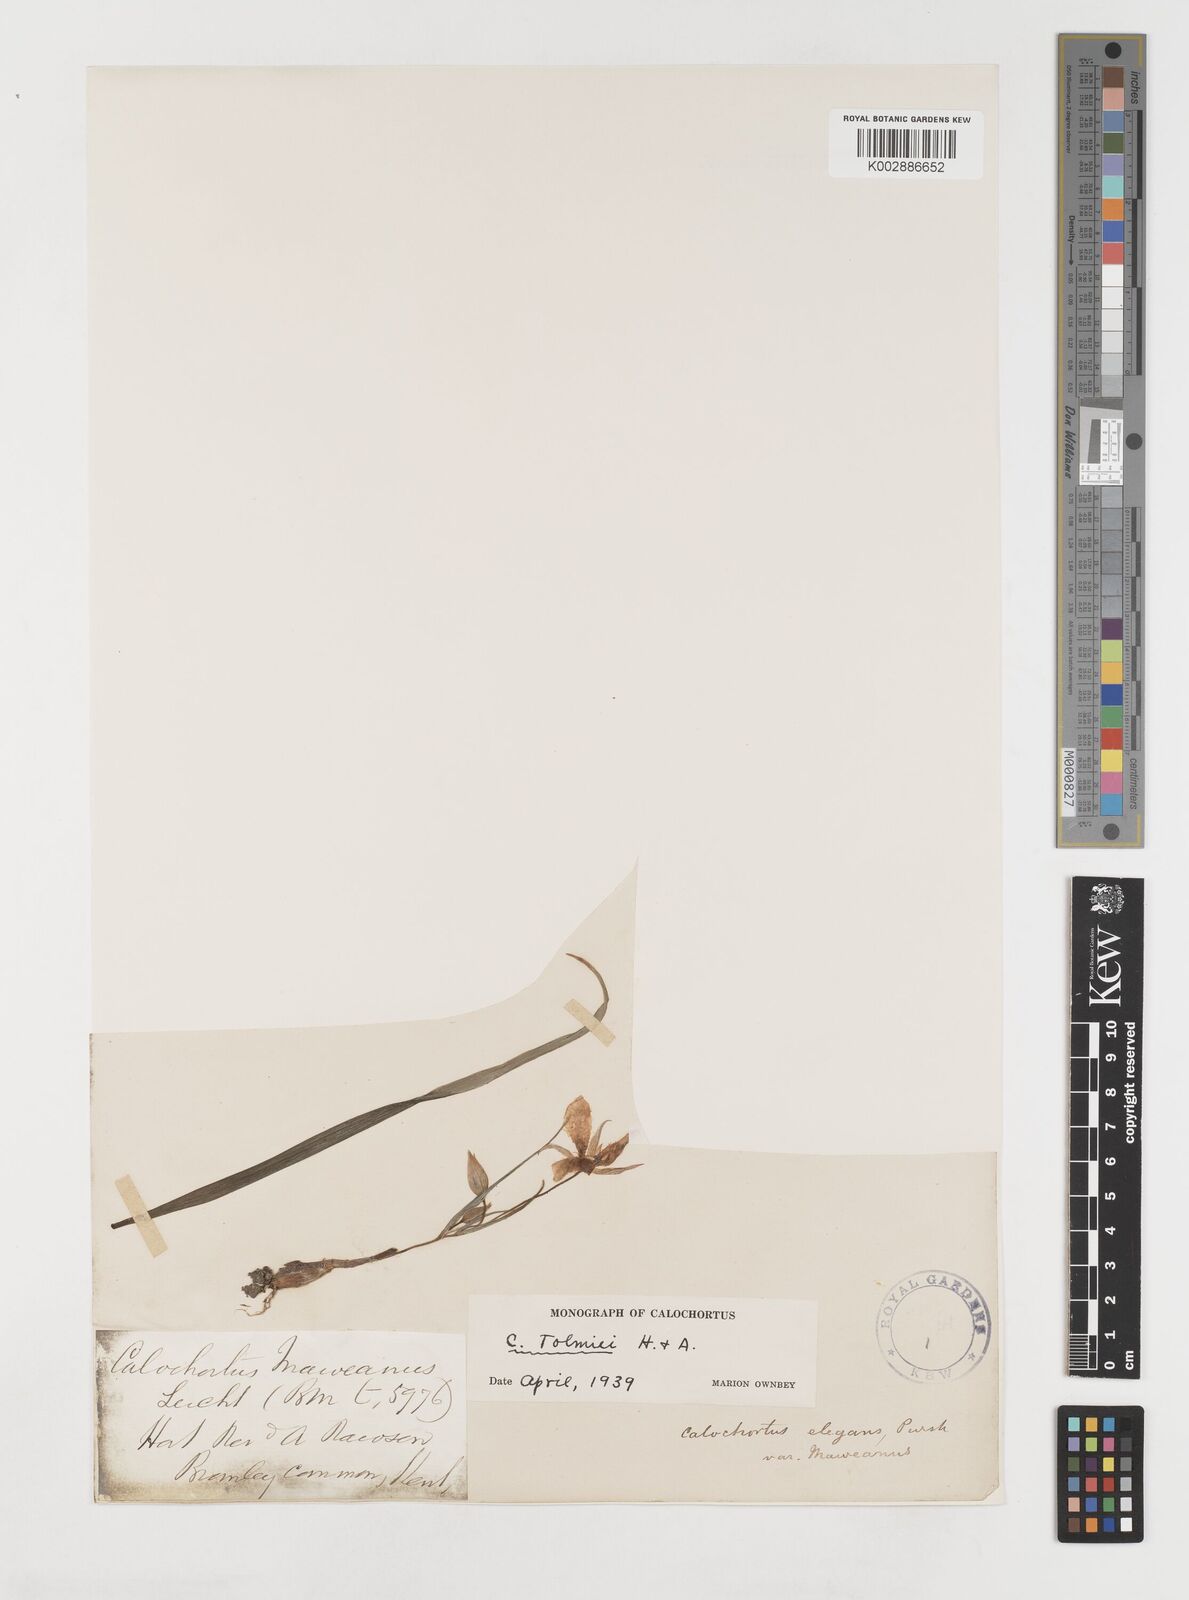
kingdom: Plantae
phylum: Tracheophyta
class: Liliopsida
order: Liliales
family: Liliaceae
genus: Calochortus
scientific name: Calochortus tolmiei
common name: Pussy-ears
